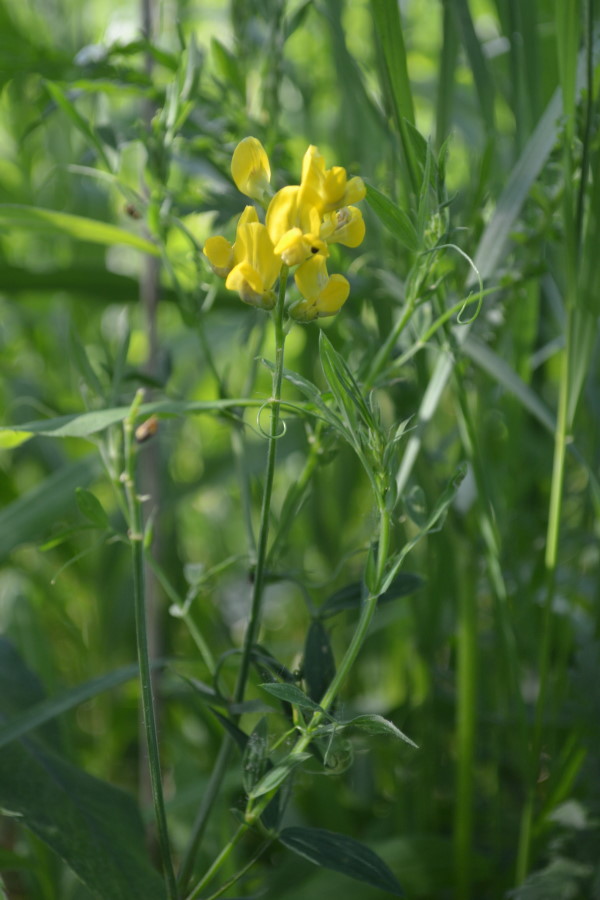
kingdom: Plantae
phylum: Tracheophyta
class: Magnoliopsida
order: Fabales
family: Fabaceae
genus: Lathyrus
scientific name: Lathyrus pratensis
